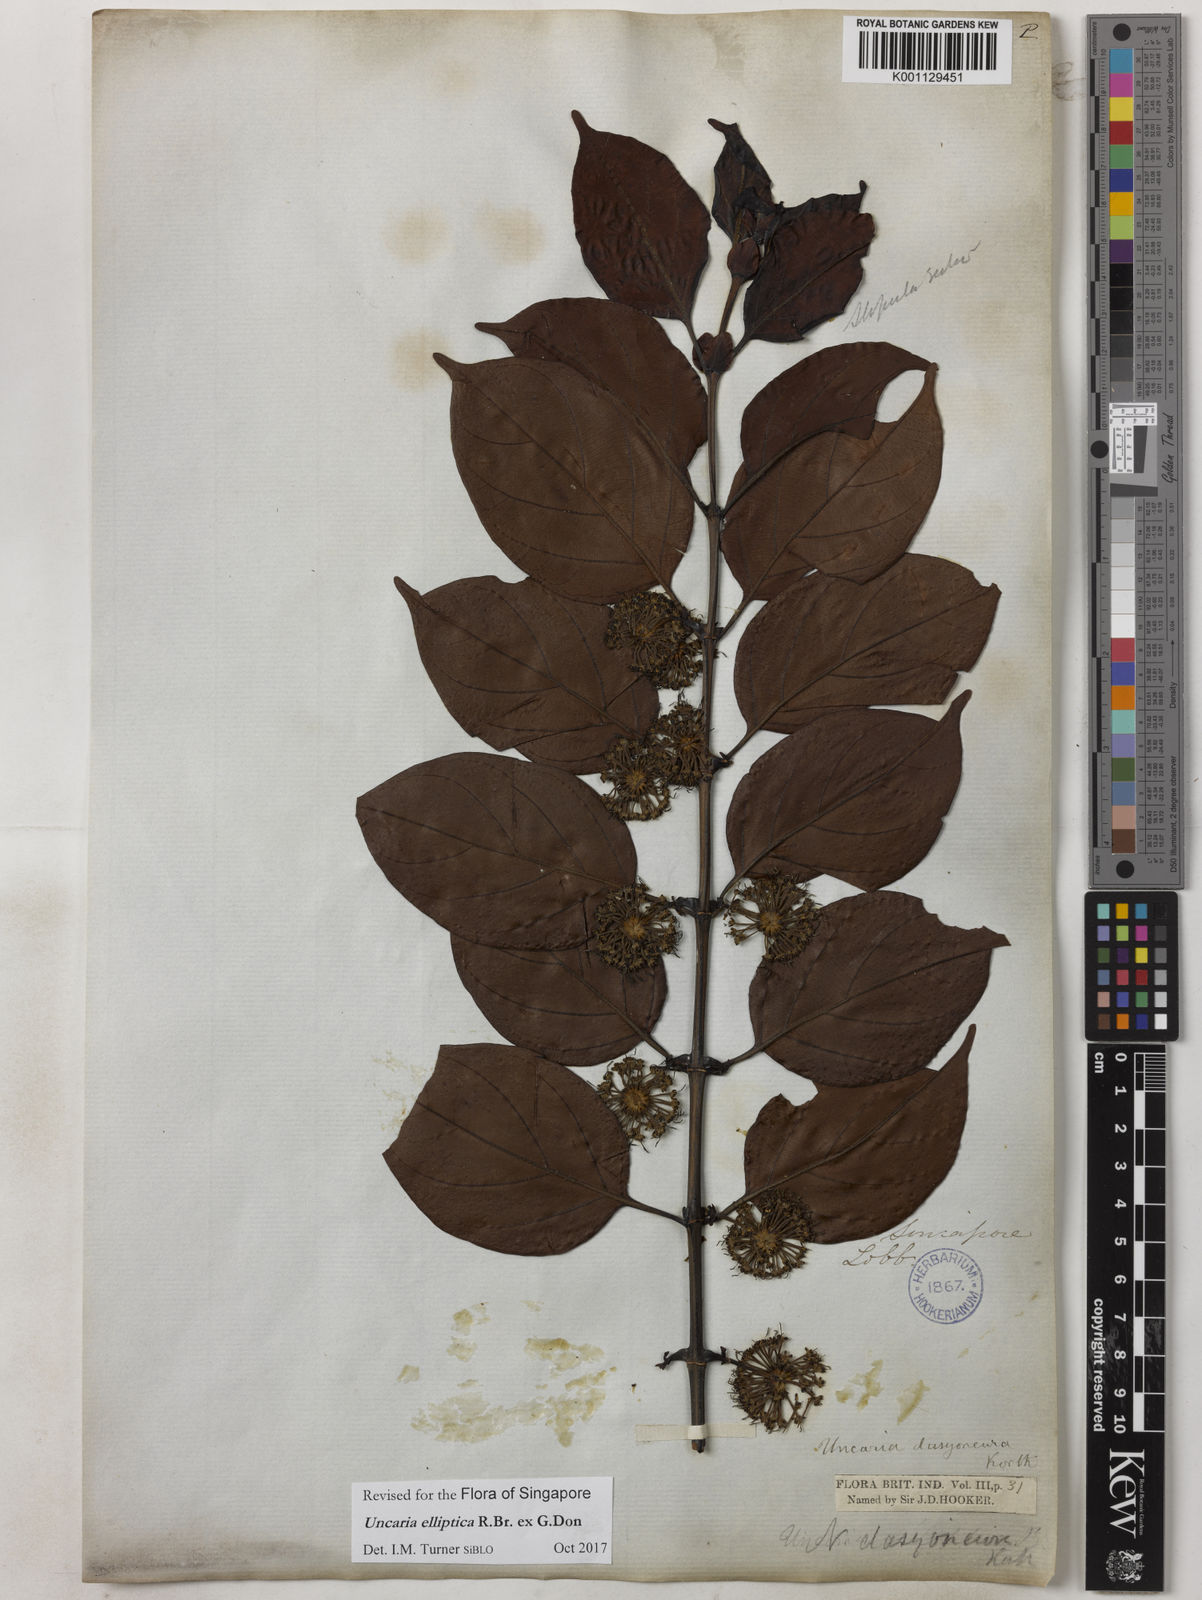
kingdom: Plantae
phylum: Tracheophyta
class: Magnoliopsida
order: Gentianales
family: Rubiaceae
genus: Uncaria
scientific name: Uncaria elliptica
